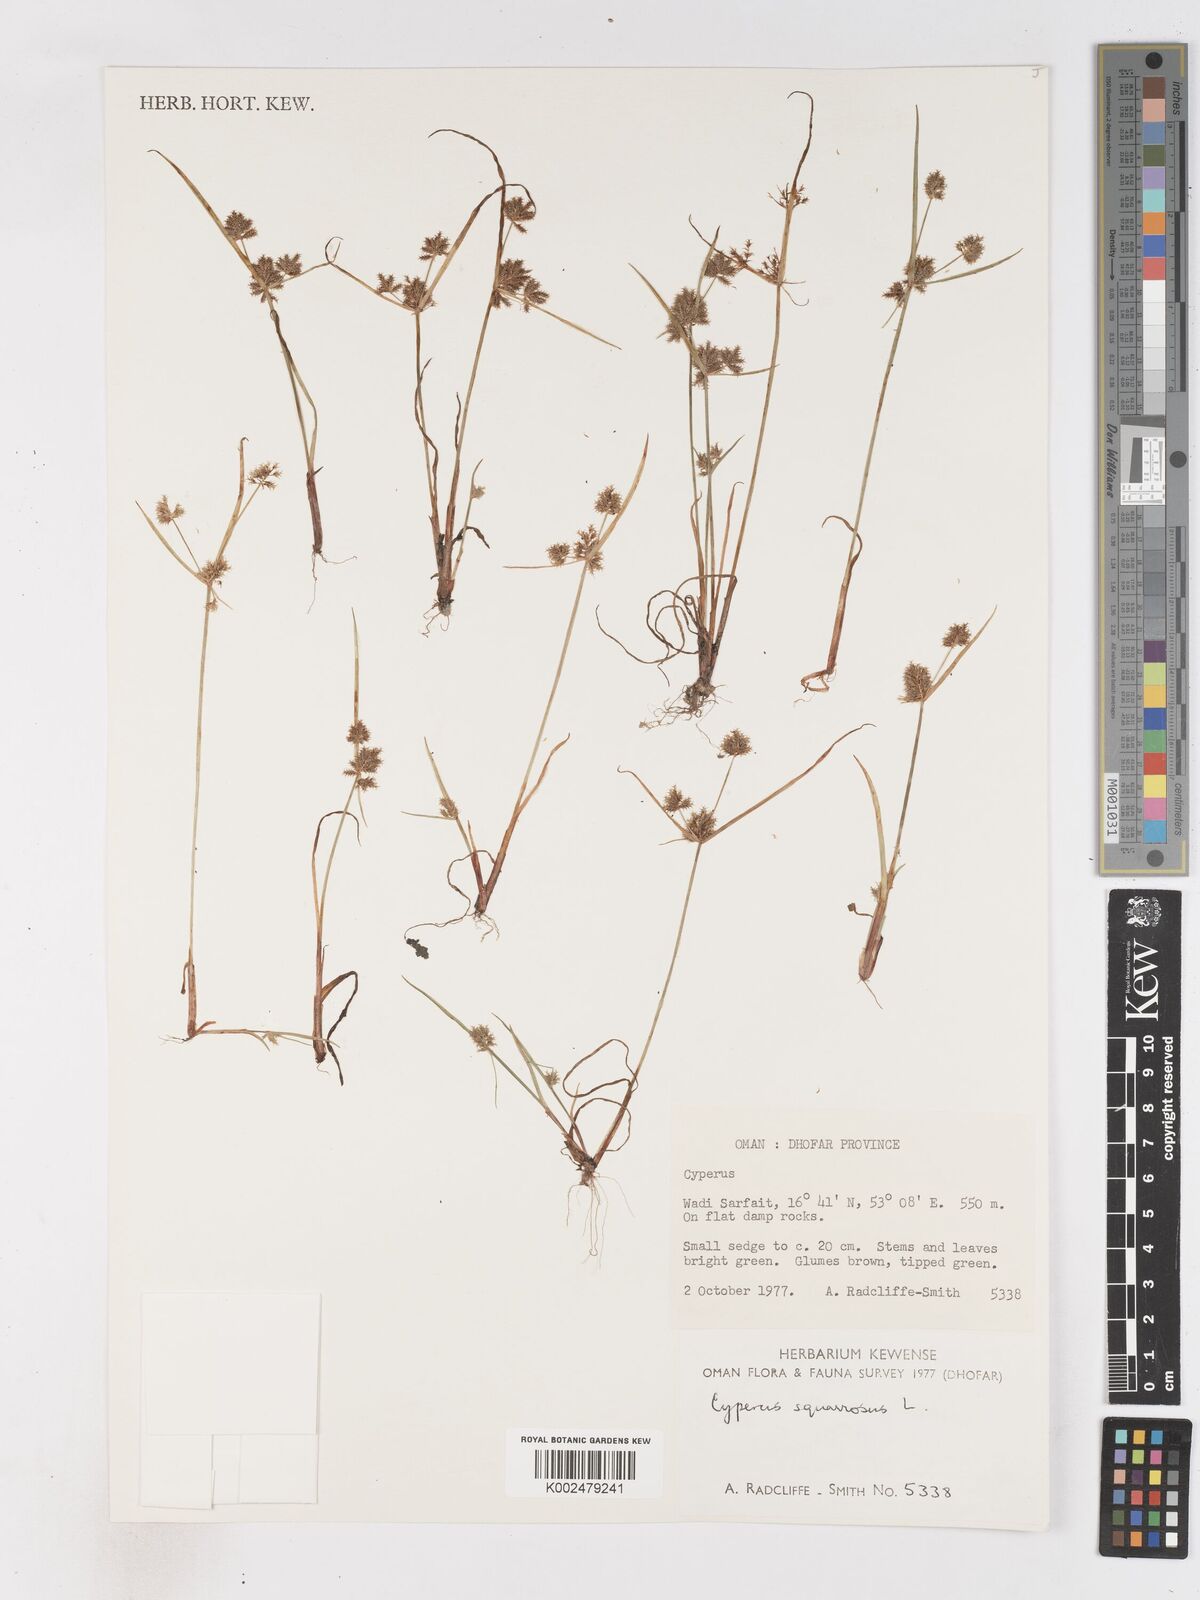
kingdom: Plantae
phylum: Tracheophyta
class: Liliopsida
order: Poales
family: Cyperaceae
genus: Cyperus
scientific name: Cyperus squarrosus
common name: Awned cyperus
